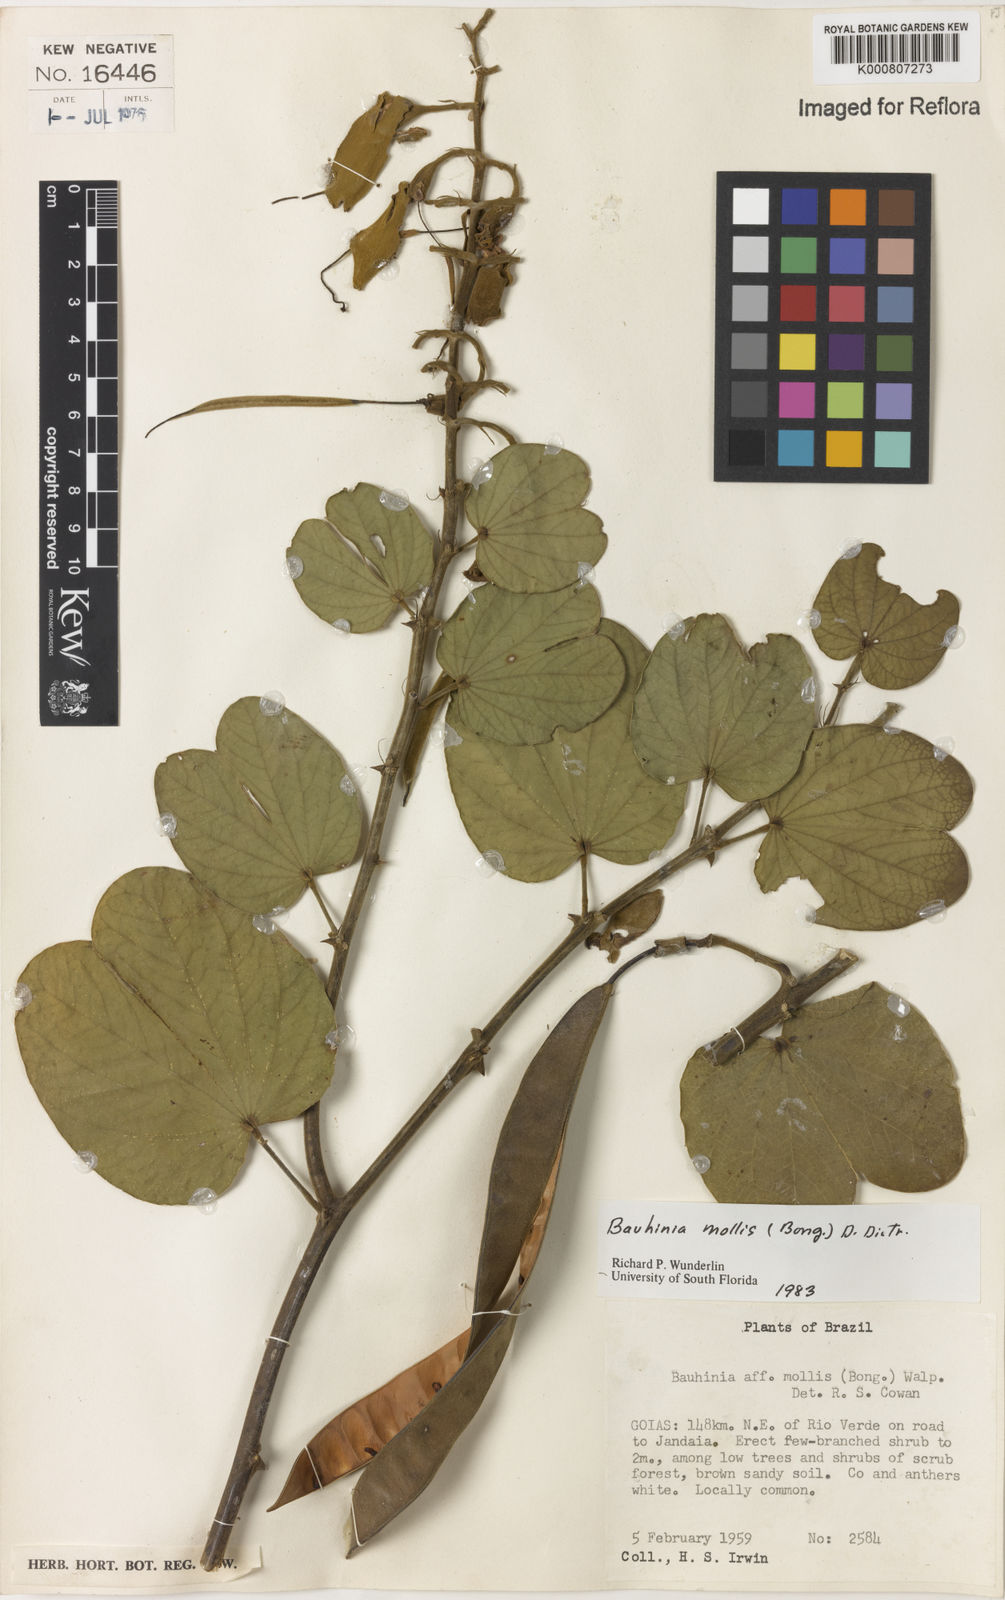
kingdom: Plantae
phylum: Tracheophyta
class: Magnoliopsida
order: Fabales
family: Fabaceae
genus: Bauhinia
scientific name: Bauhinia mollis
